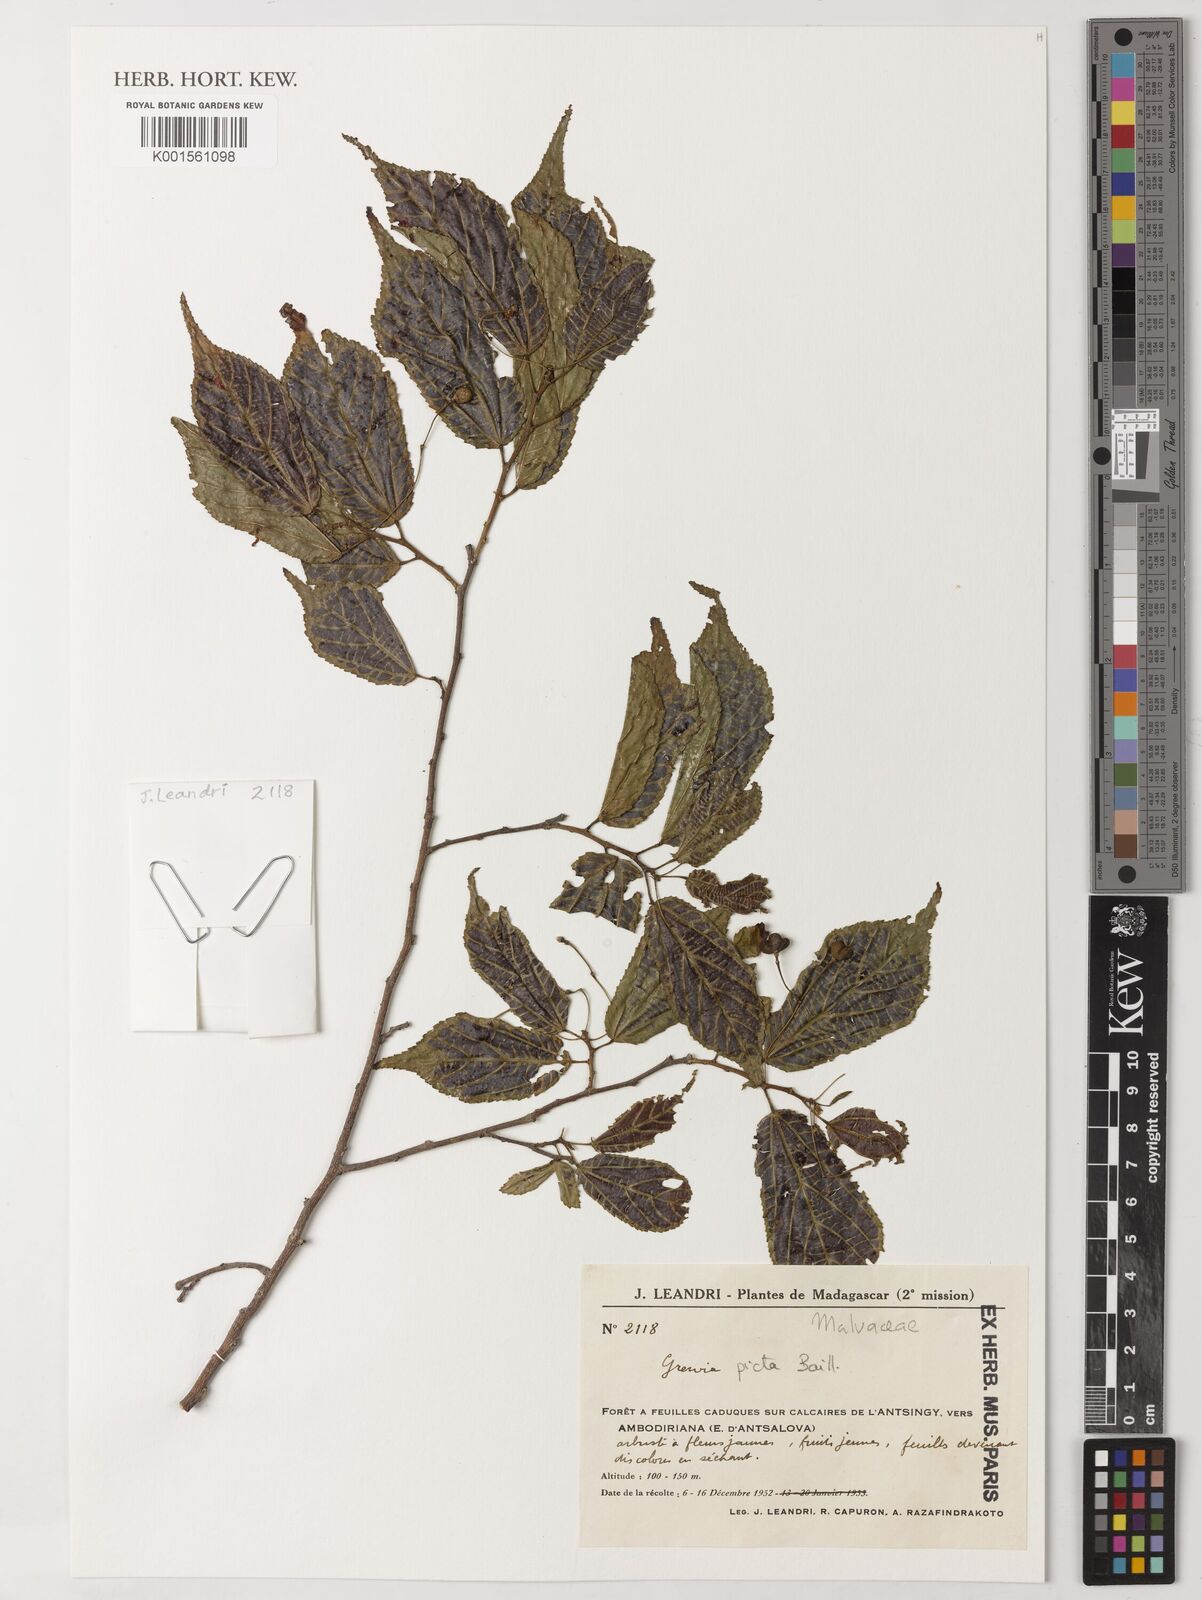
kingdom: Plantae
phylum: Tracheophyta
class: Magnoliopsida
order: Malvales
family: Malvaceae
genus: Grewia
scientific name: Grewia picta
